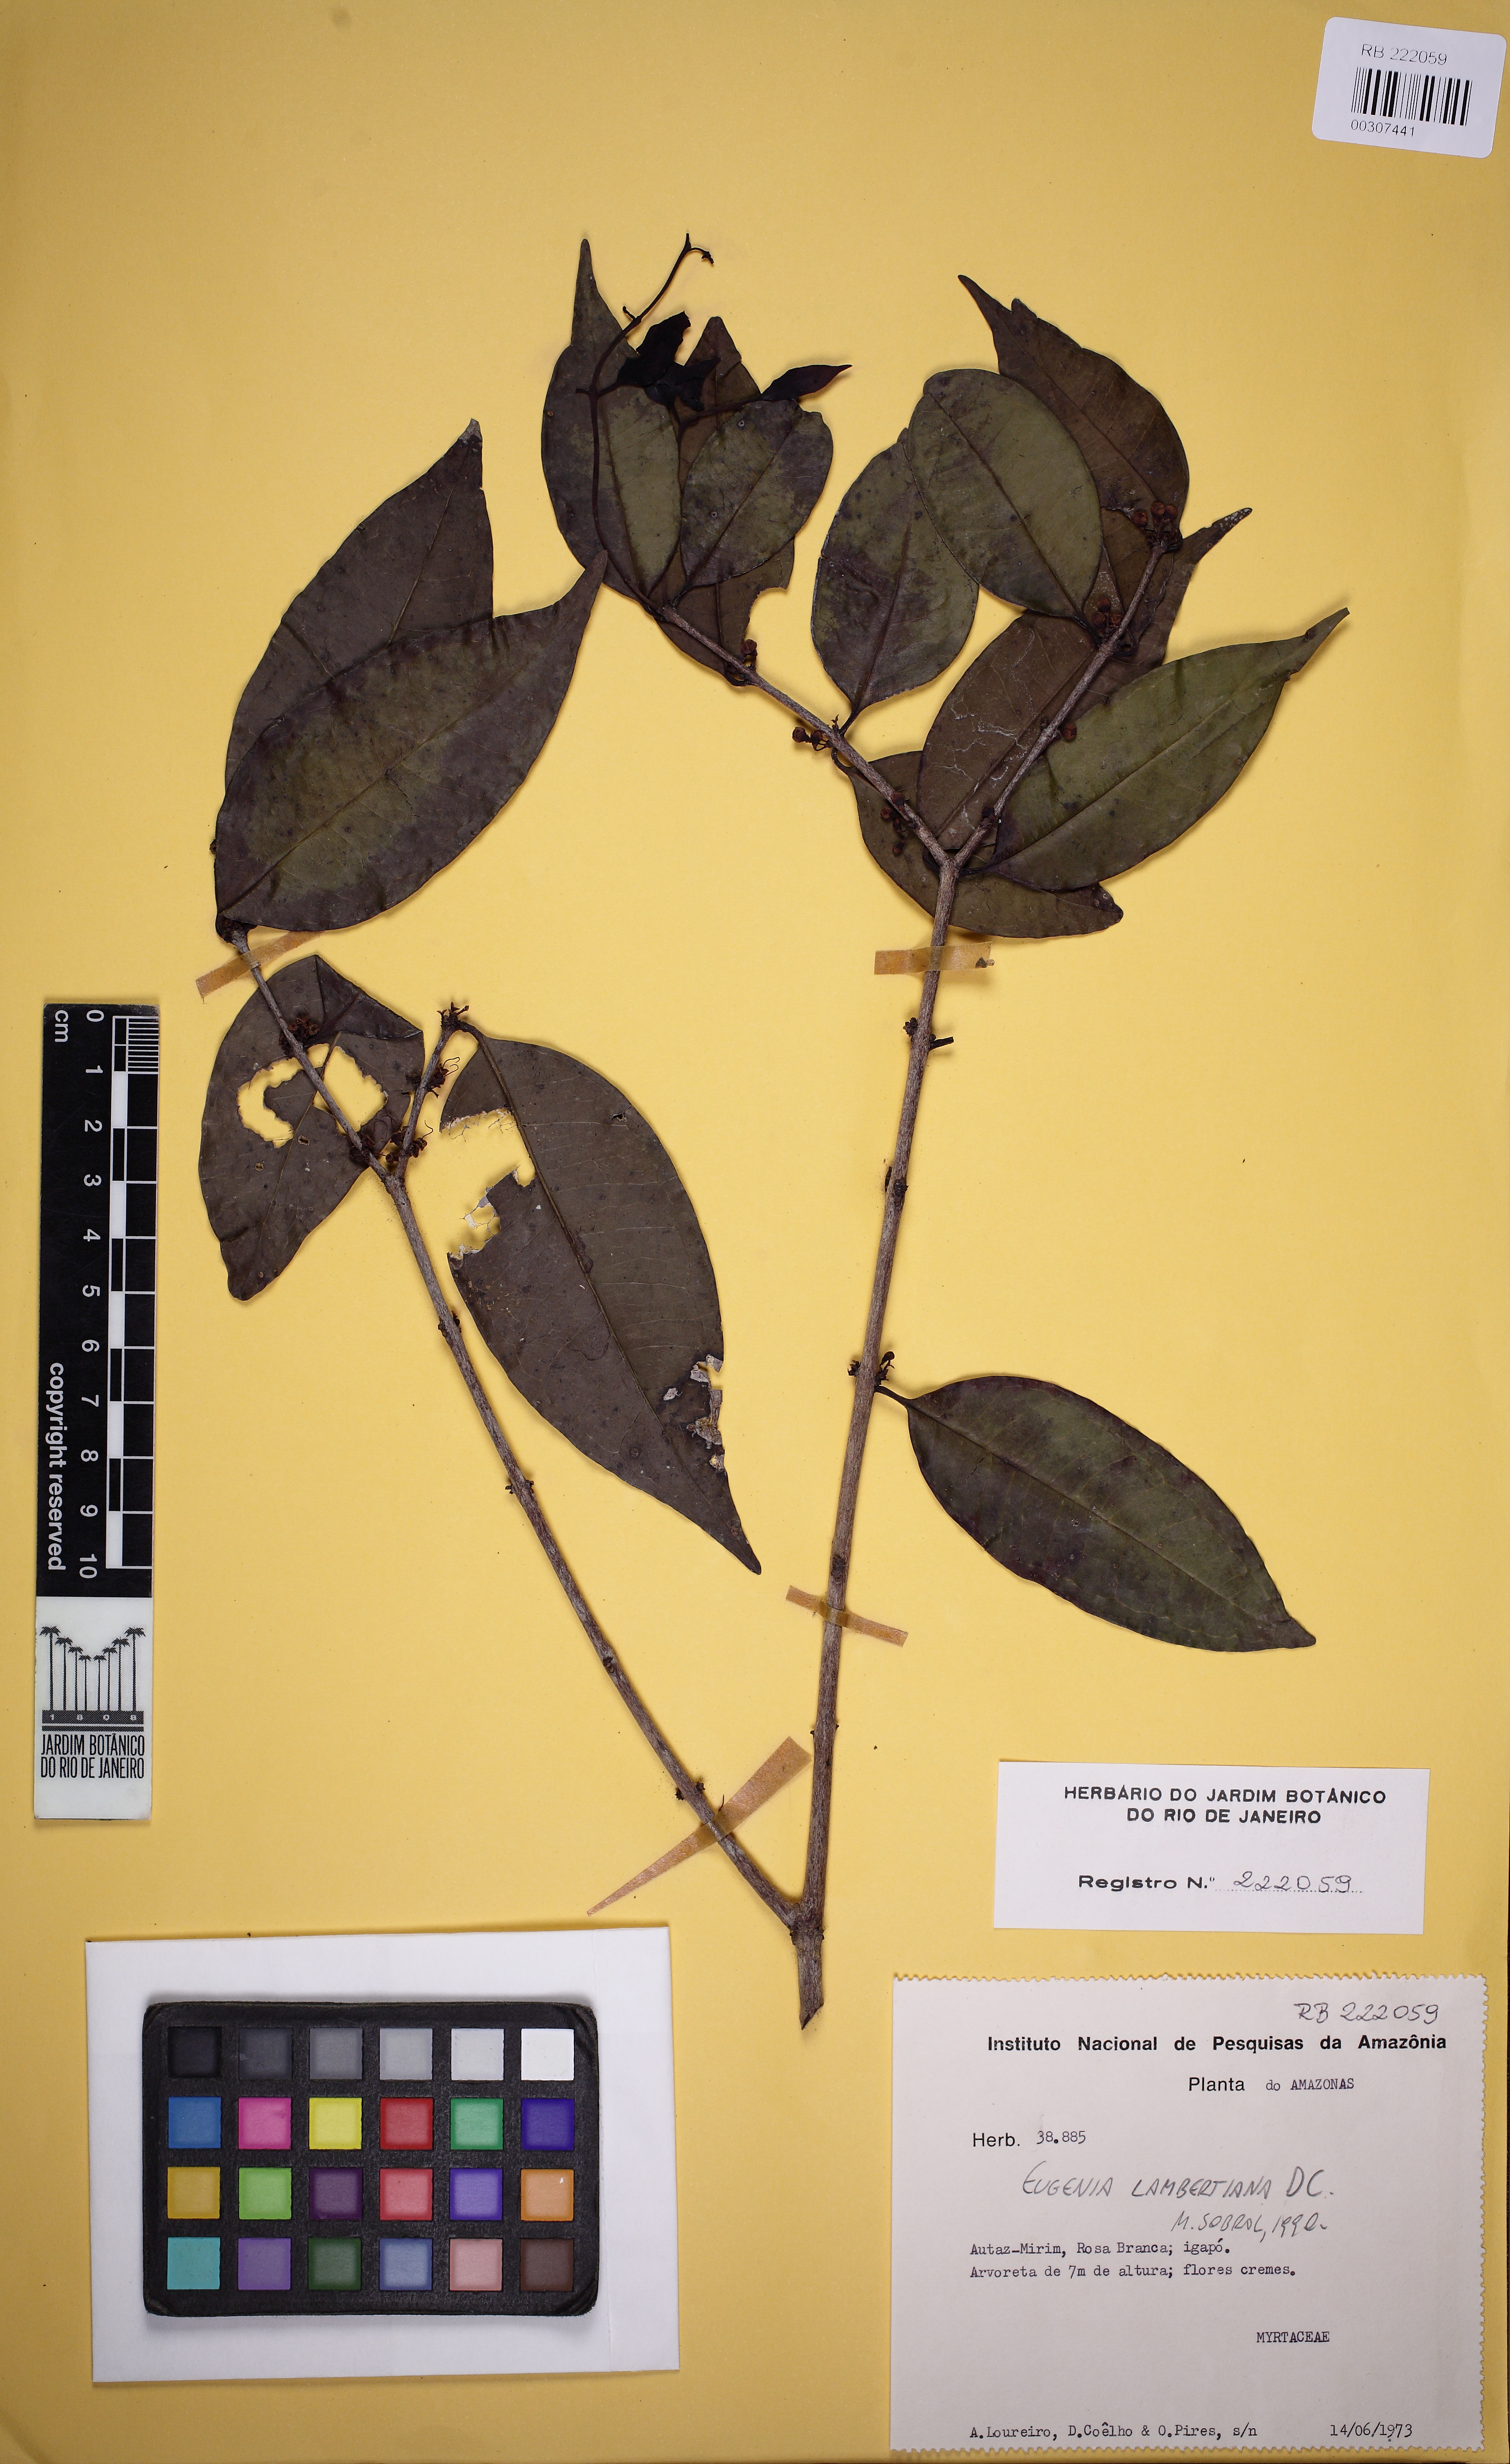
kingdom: Plantae
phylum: Tracheophyta
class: Magnoliopsida
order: Myrtales
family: Myrtaceae
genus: Eugenia
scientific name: Eugenia lambertiana
